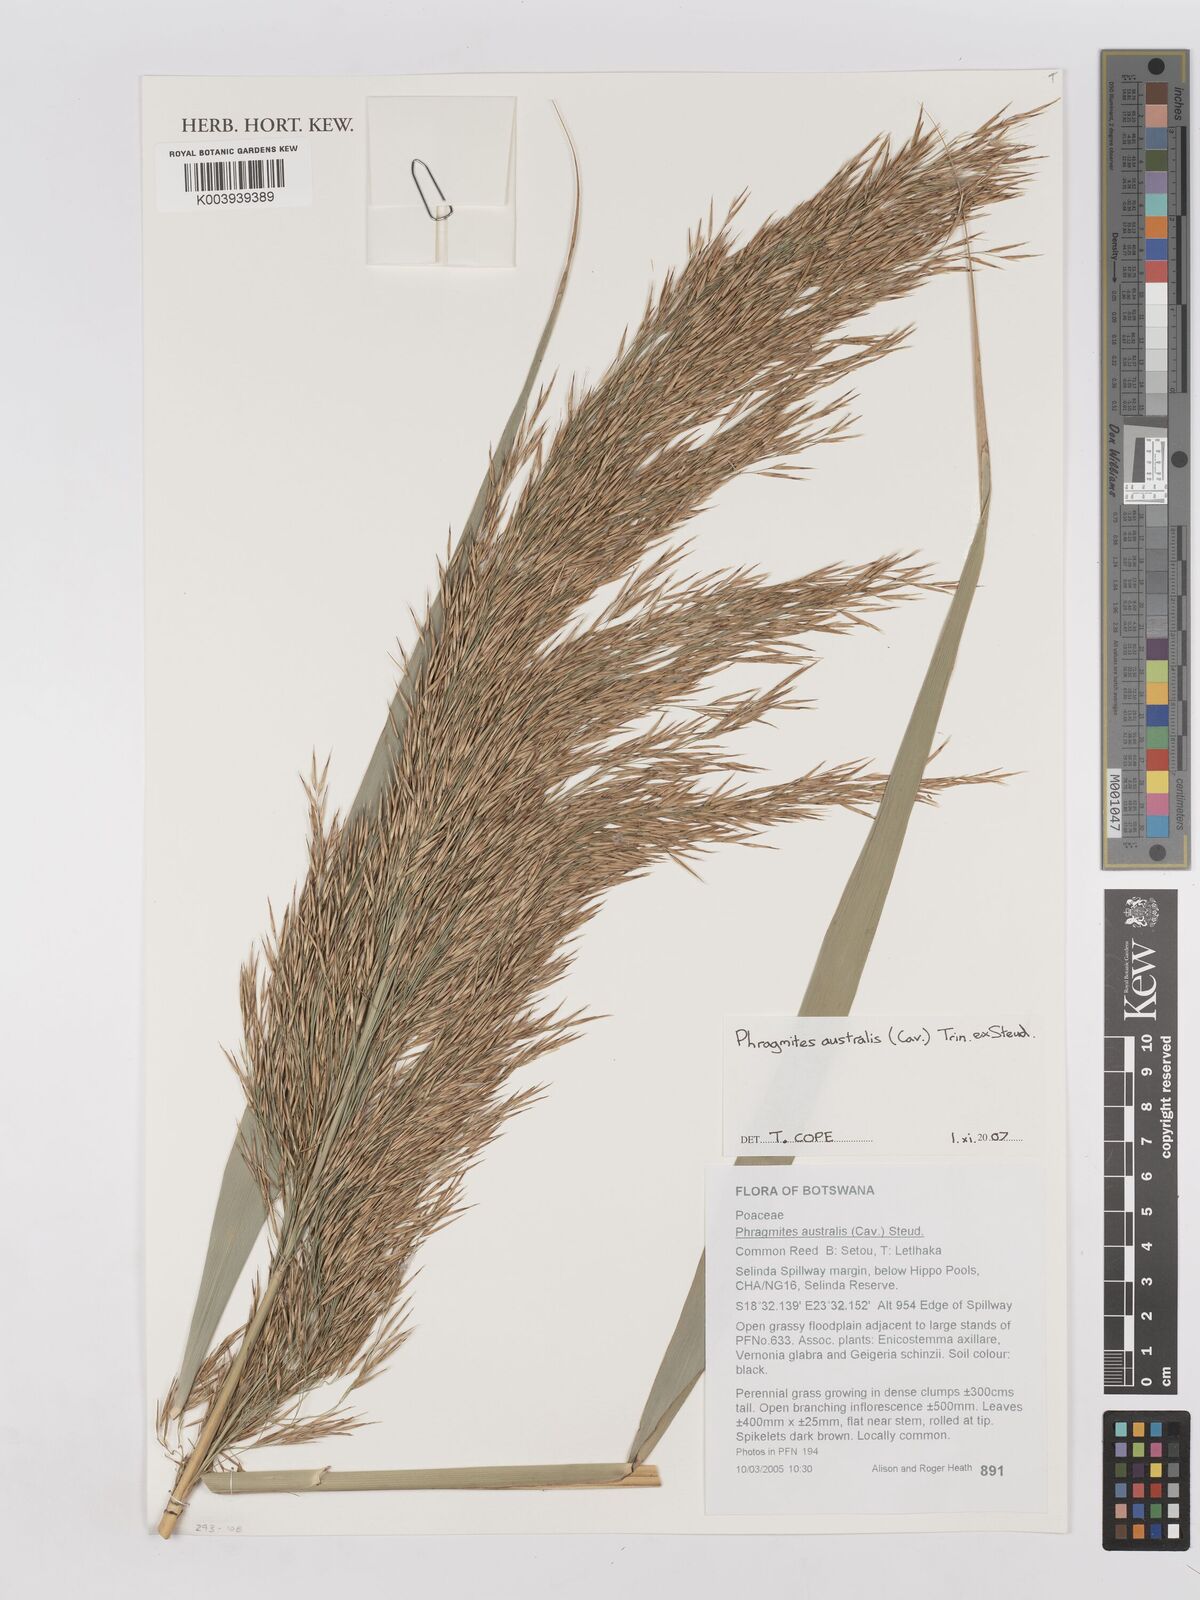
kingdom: Plantae
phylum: Tracheophyta
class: Liliopsida
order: Poales
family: Poaceae
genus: Phragmites
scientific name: Phragmites australis
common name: Common reed
